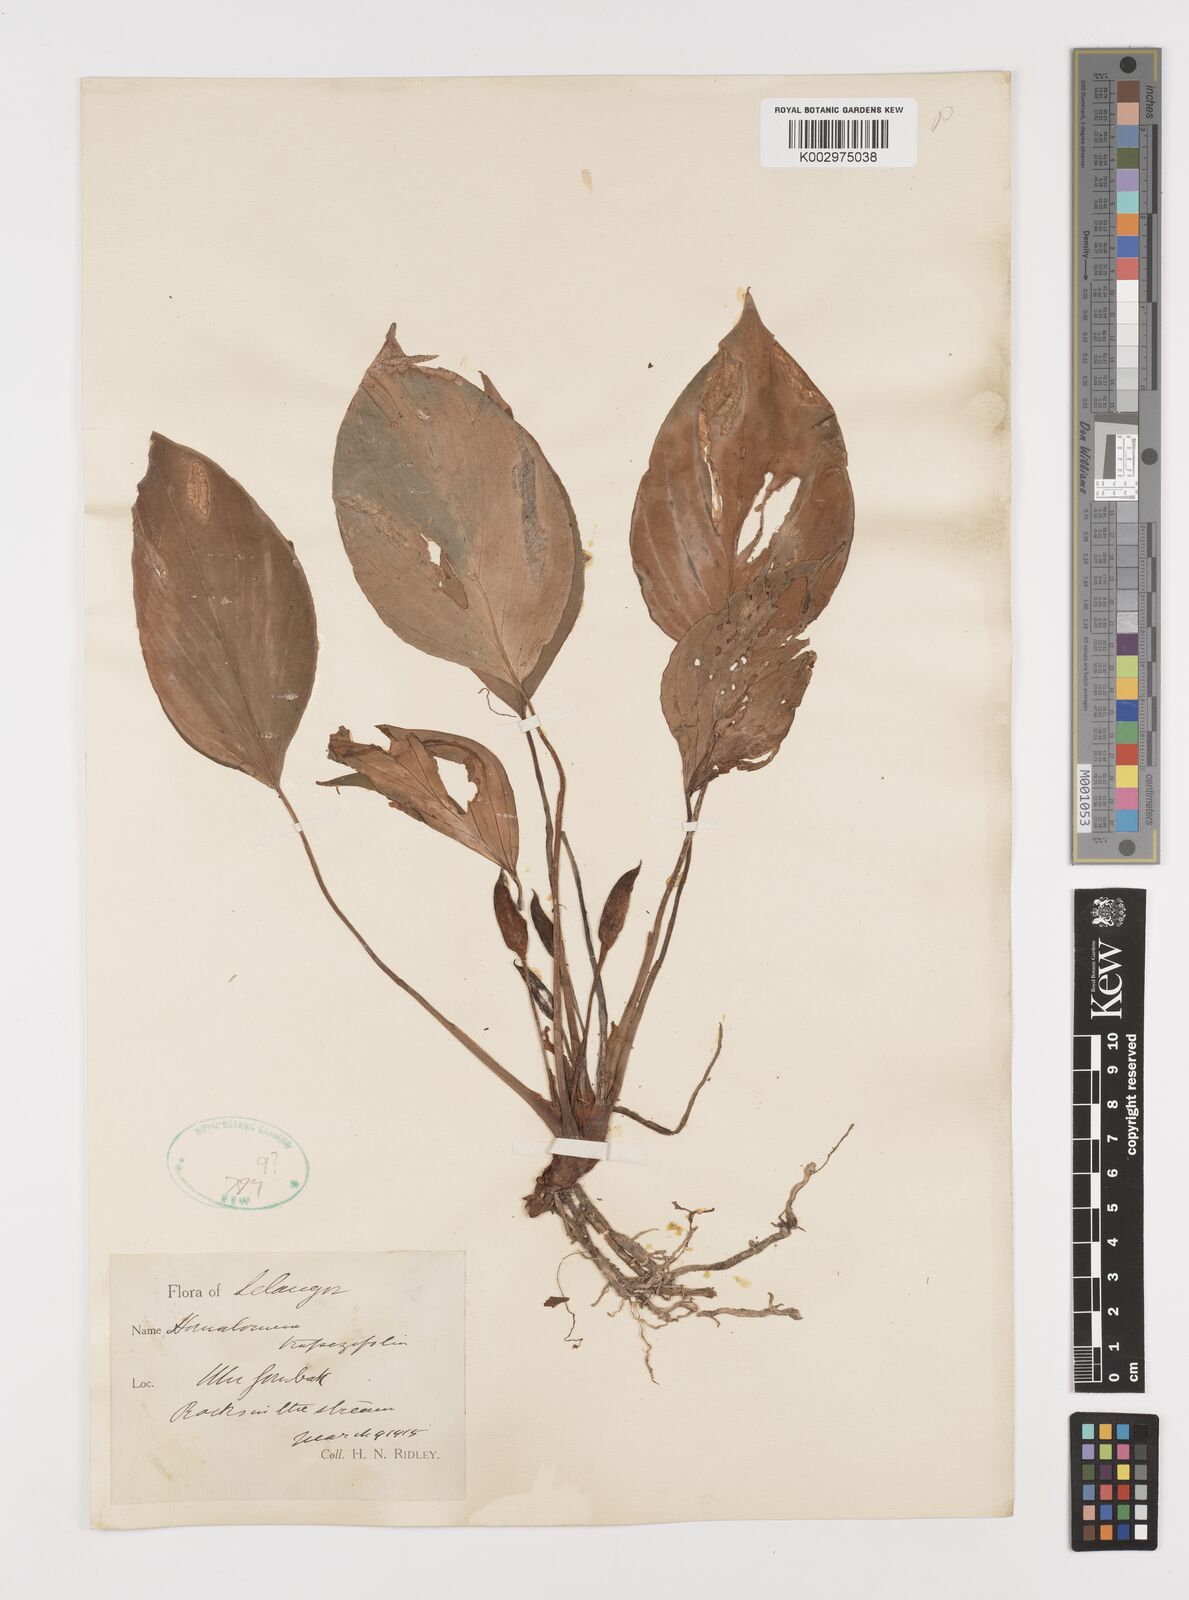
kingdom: Plantae
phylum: Tracheophyta
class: Liliopsida
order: Alismatales
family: Araceae
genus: Homalomena
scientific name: Homalomena griffithii
